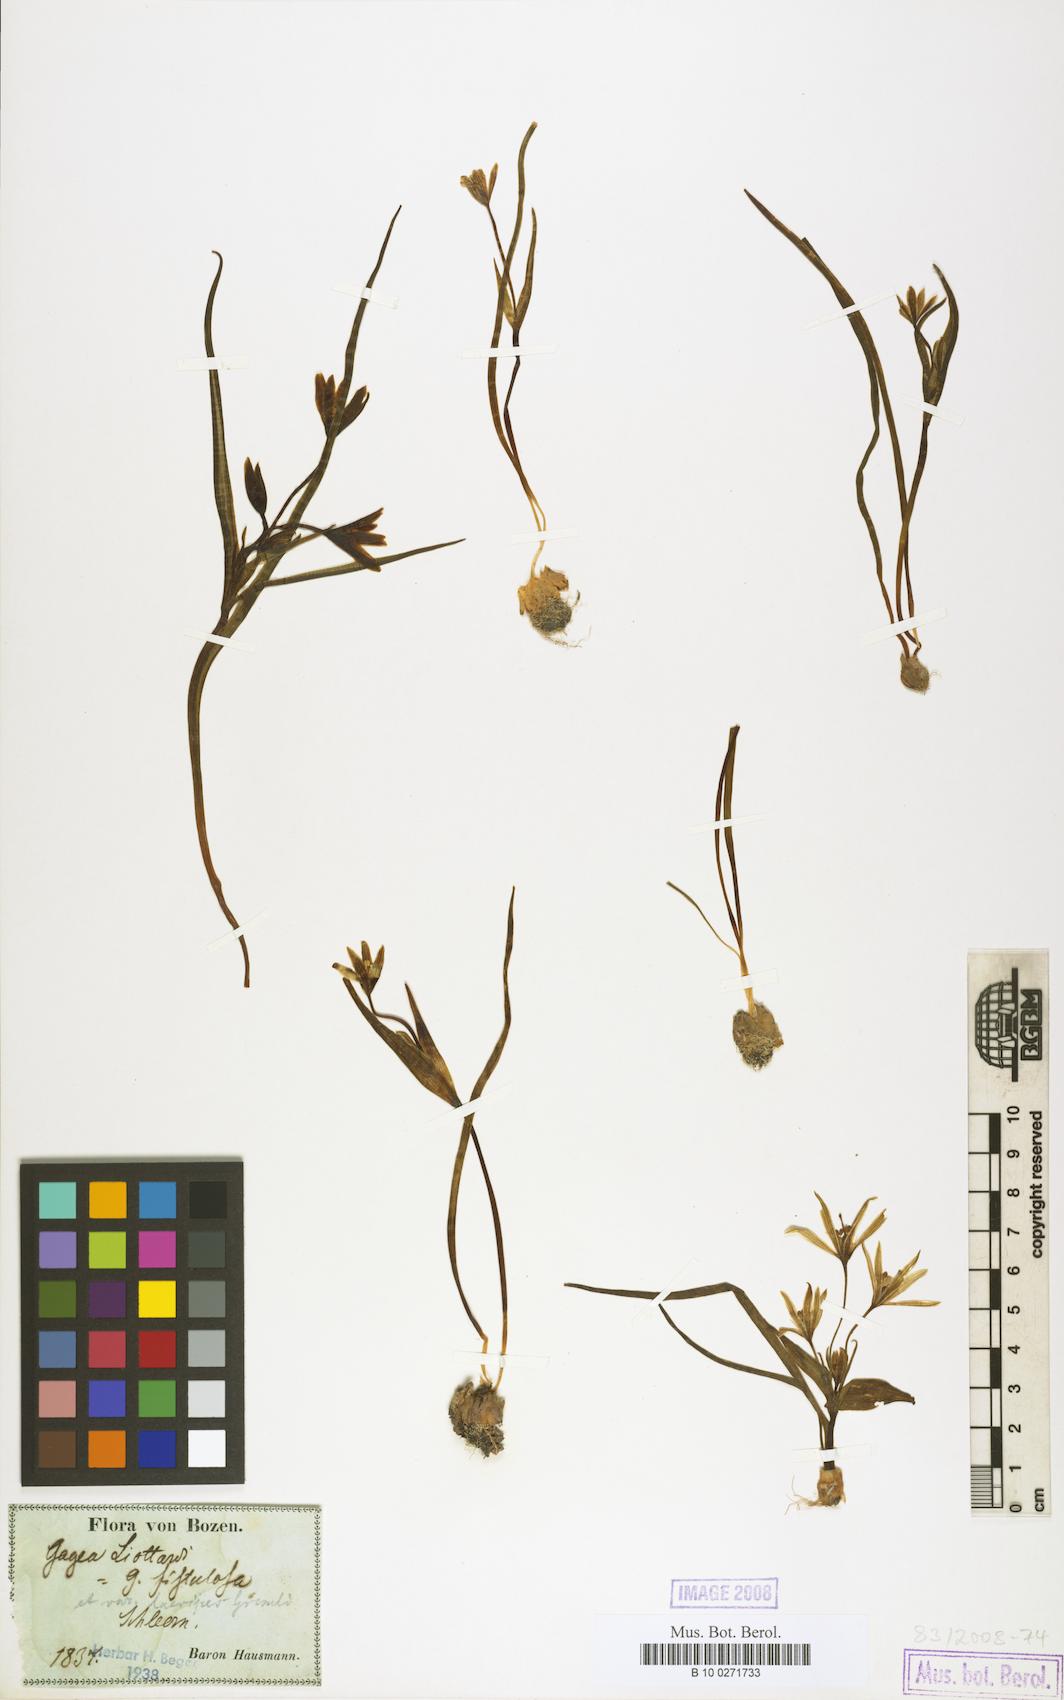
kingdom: Plantae
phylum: Tracheophyta
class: Liliopsida
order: Liliales
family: Liliaceae
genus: Gagea
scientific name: Gagea bohemica
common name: Early star-of-bethlehem
